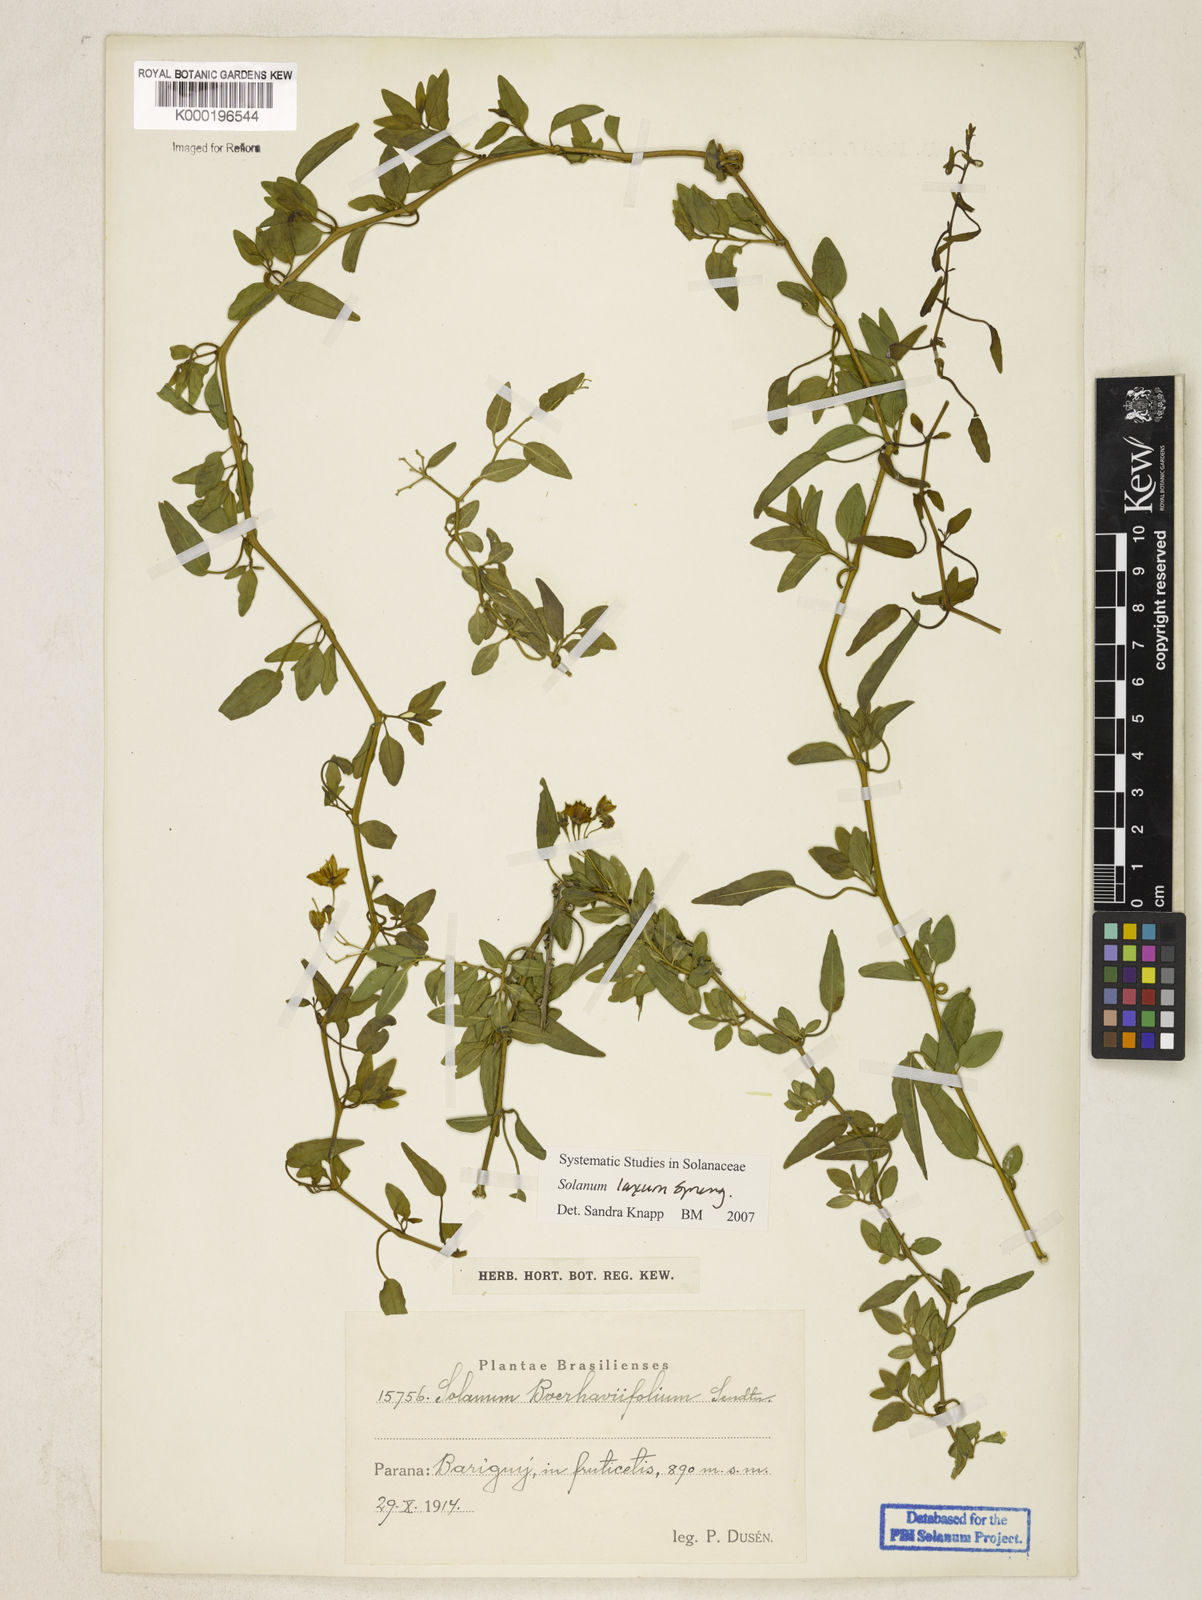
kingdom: Plantae
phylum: Tracheophyta
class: Magnoliopsida
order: Solanales
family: Solanaceae
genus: Solanum
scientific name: Solanum laxum
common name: Nightshade
